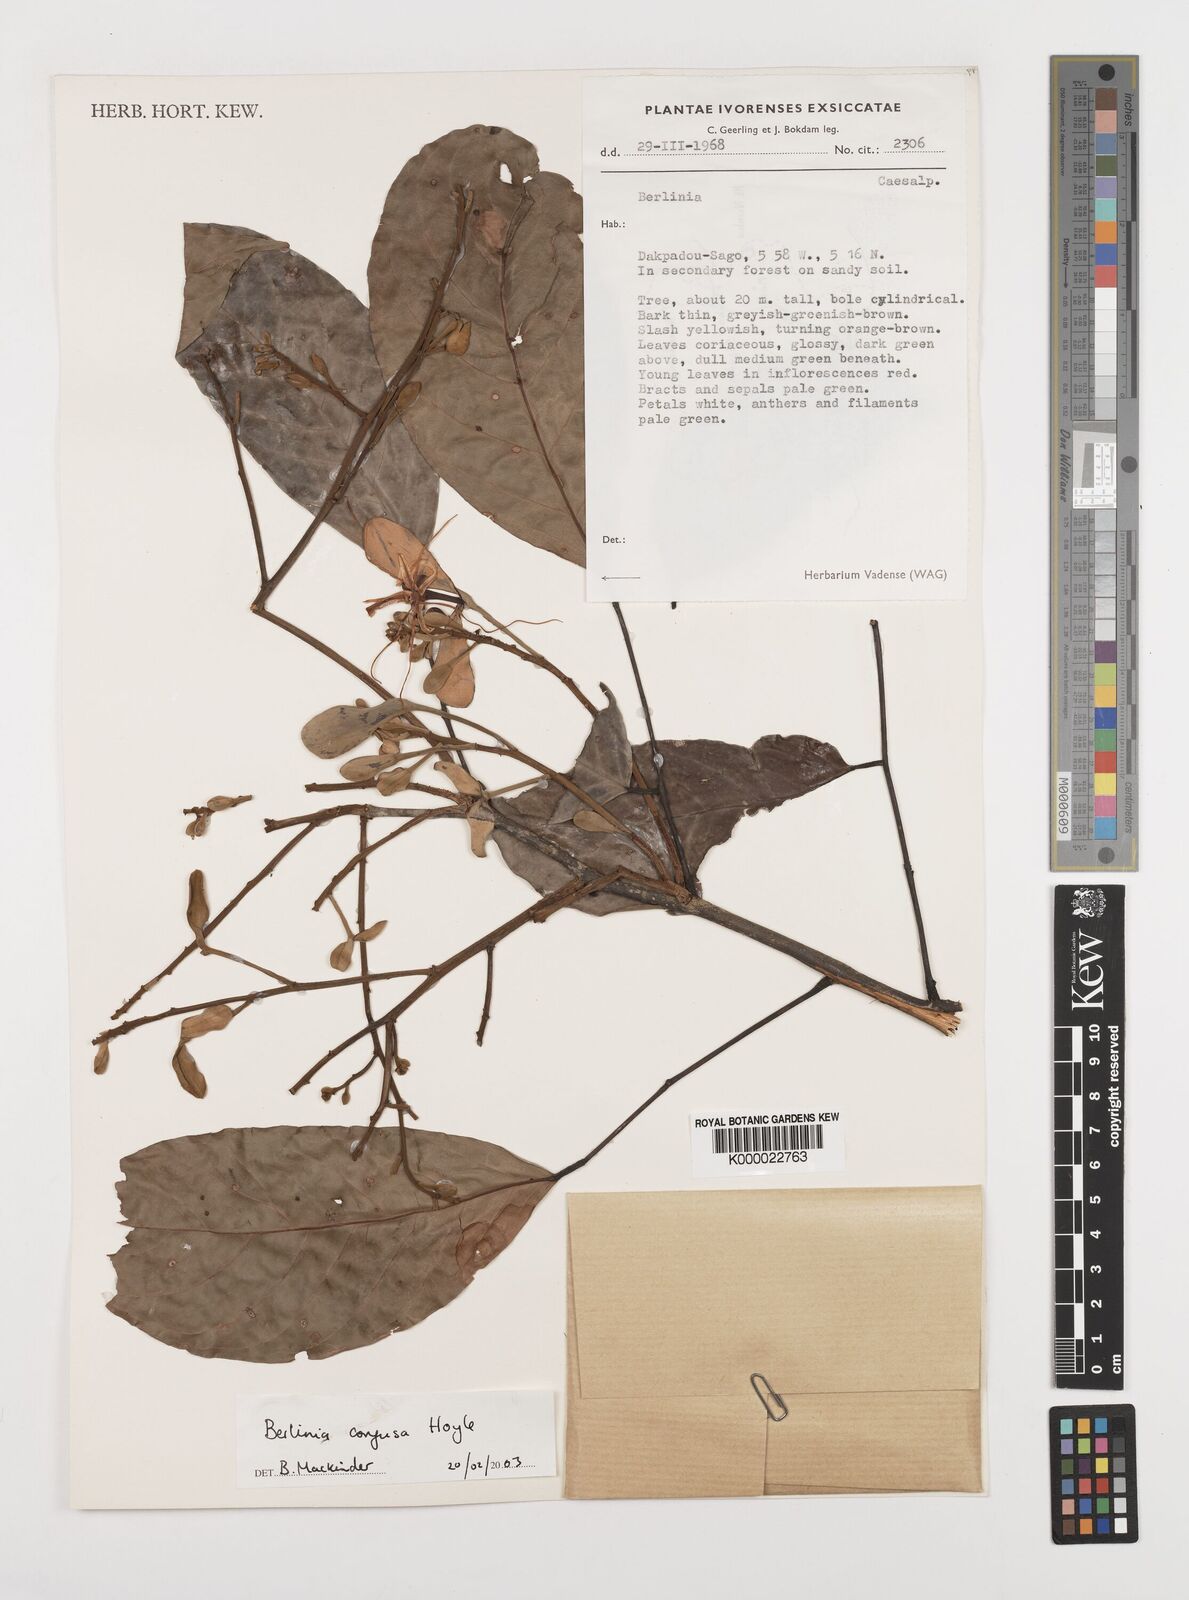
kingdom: Plantae
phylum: Tracheophyta
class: Magnoliopsida
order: Fabales
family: Fabaceae
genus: Berlinia
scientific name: Berlinia confusa
